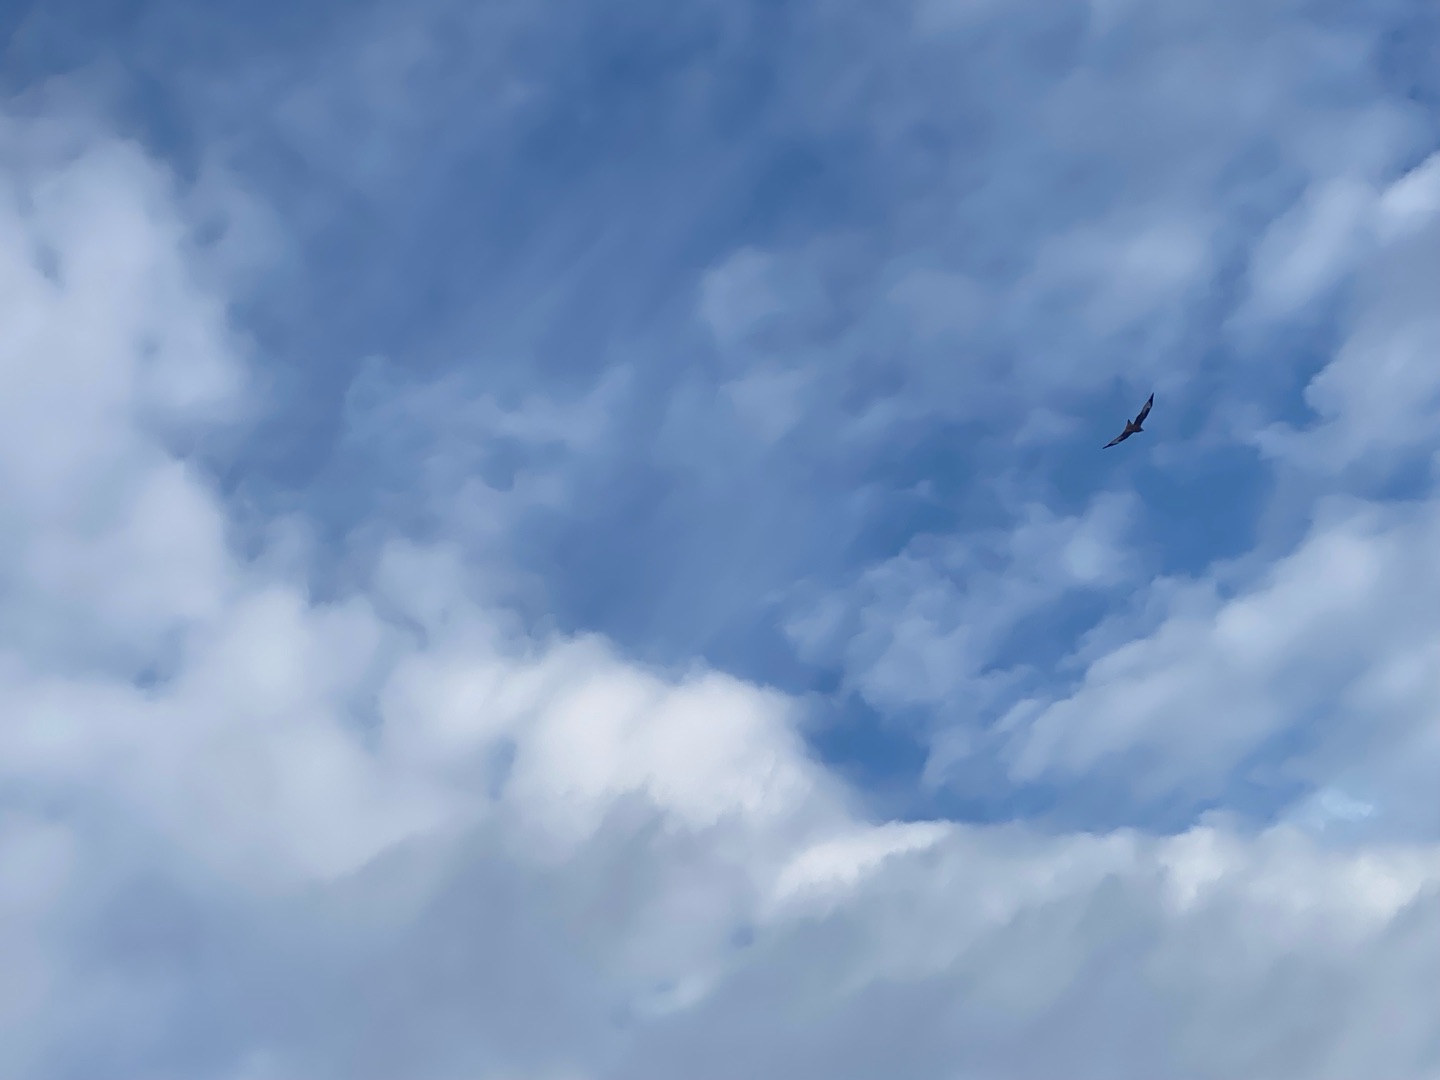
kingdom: Animalia
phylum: Chordata
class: Aves
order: Accipitriformes
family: Accipitridae
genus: Milvus
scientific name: Milvus milvus
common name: Rød glente
